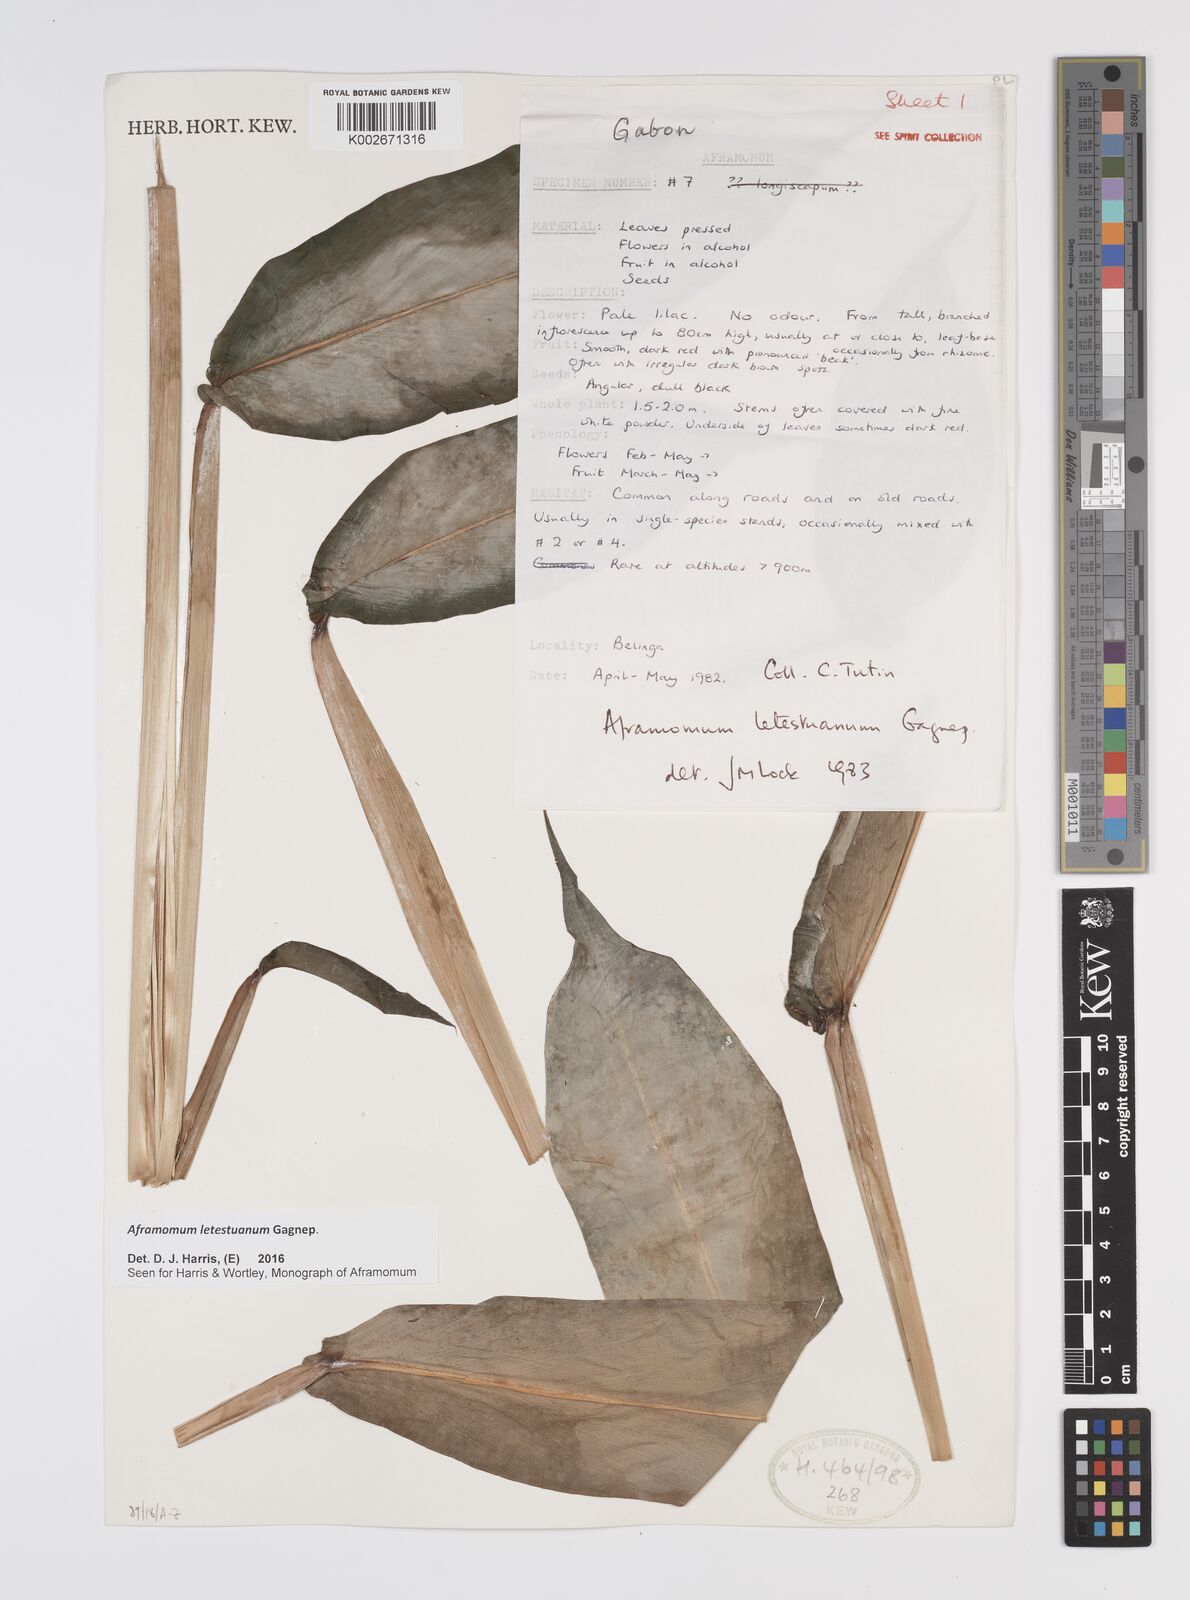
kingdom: Plantae
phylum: Tracheophyta
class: Liliopsida
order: Zingiberales
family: Zingiberaceae
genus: Aframomum
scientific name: Aframomum letestuanum
